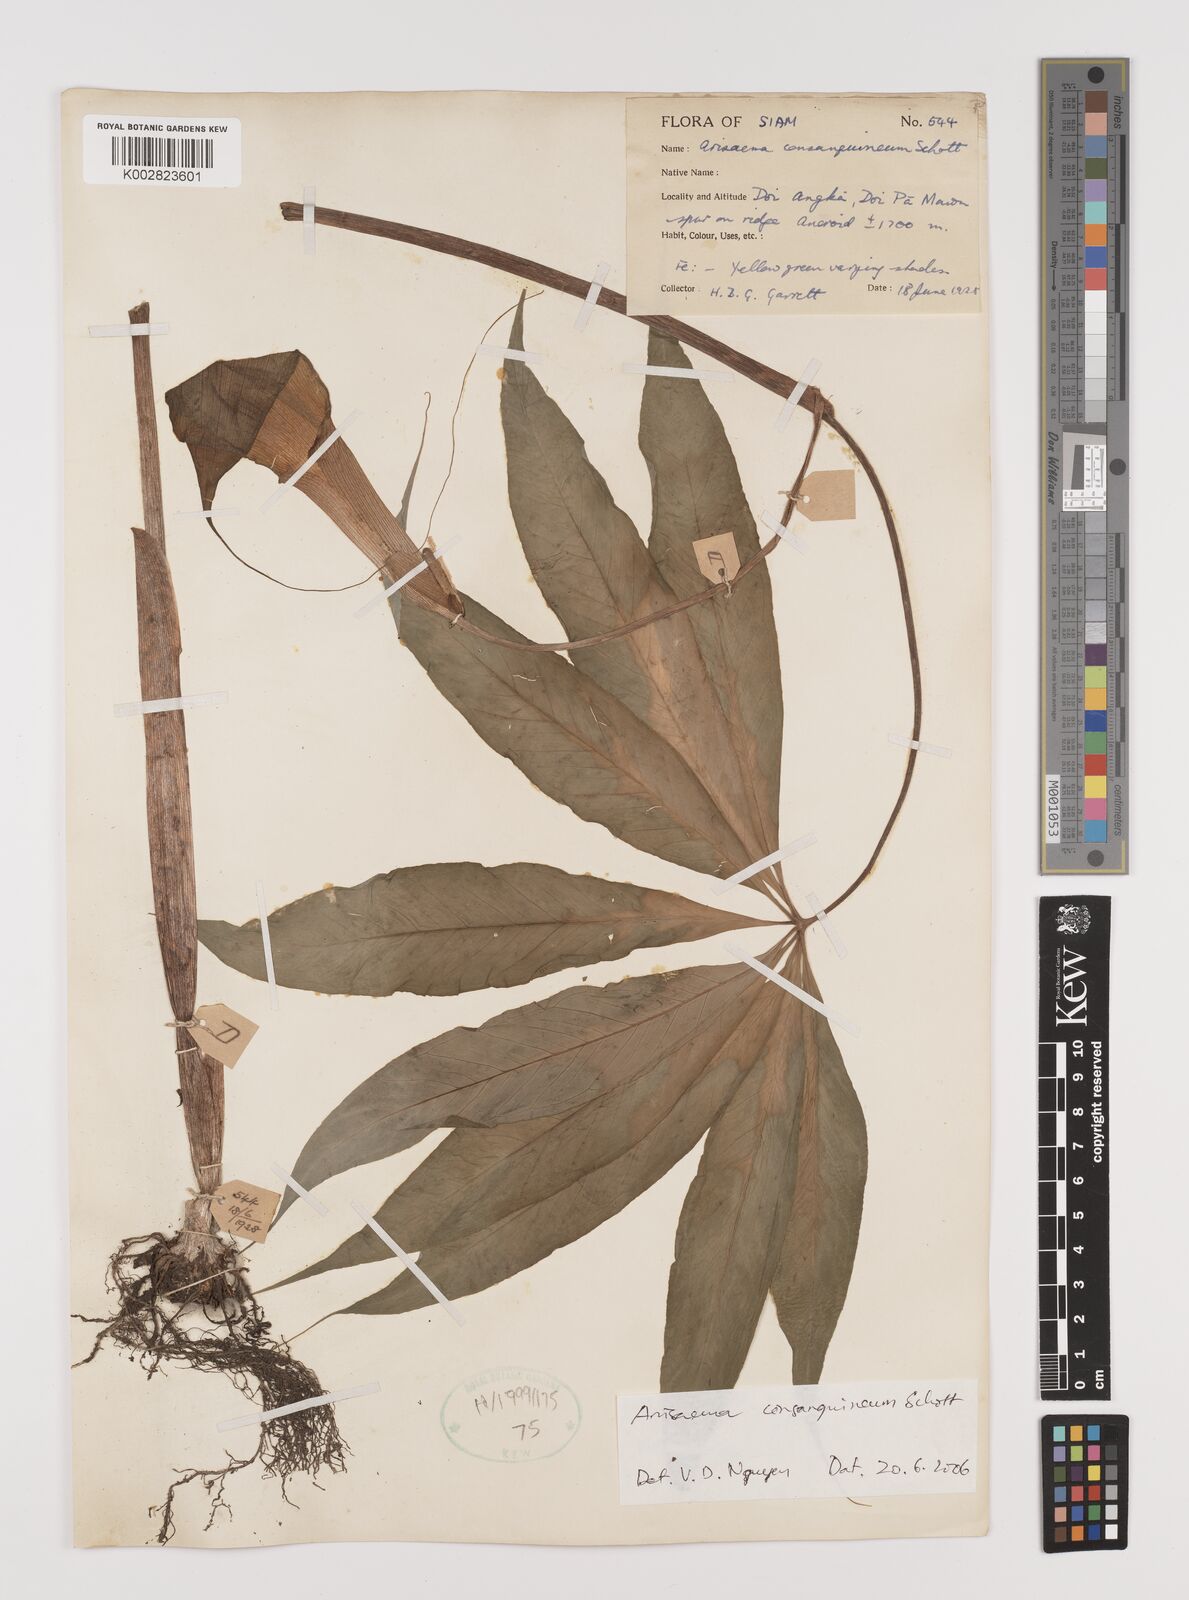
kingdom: Plantae
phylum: Tracheophyta
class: Liliopsida
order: Alismatales
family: Araceae
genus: Arisaema
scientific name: Arisaema consanguineum
